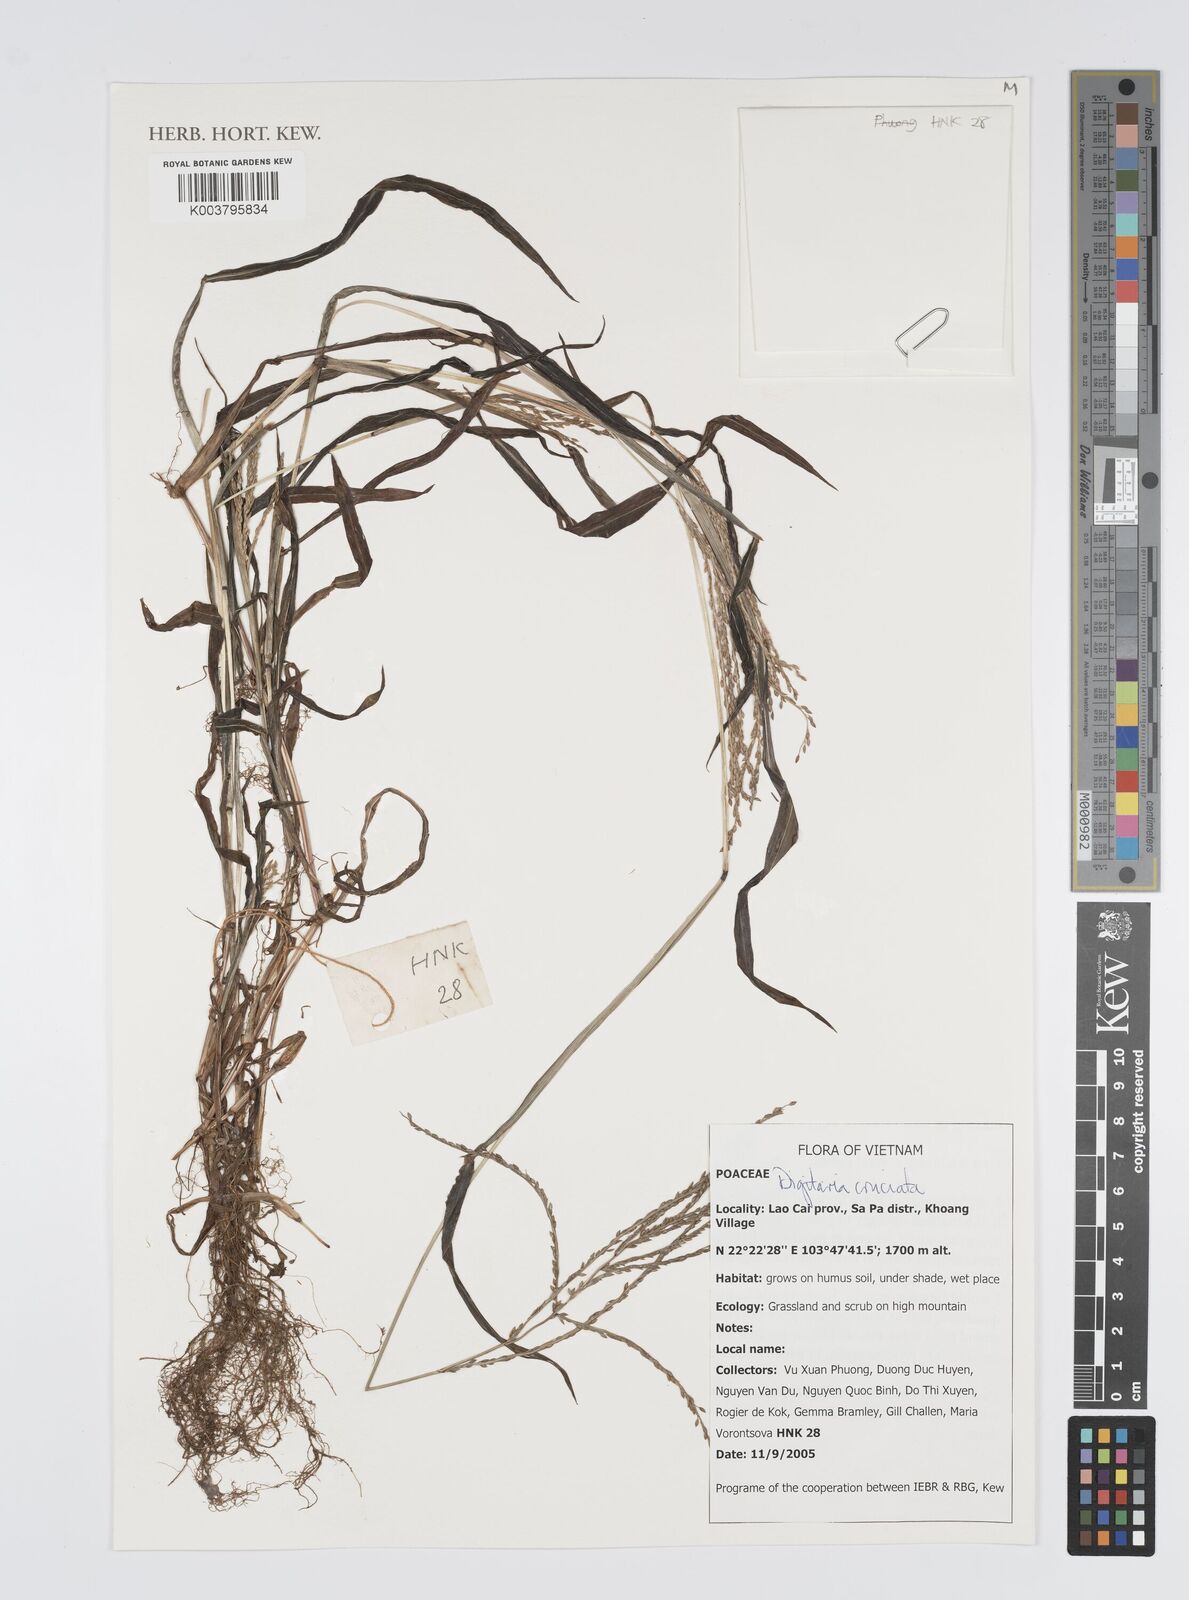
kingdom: Plantae
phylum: Tracheophyta
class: Liliopsida
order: Poales
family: Poaceae
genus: Digitaria
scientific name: Digitaria cruciata
